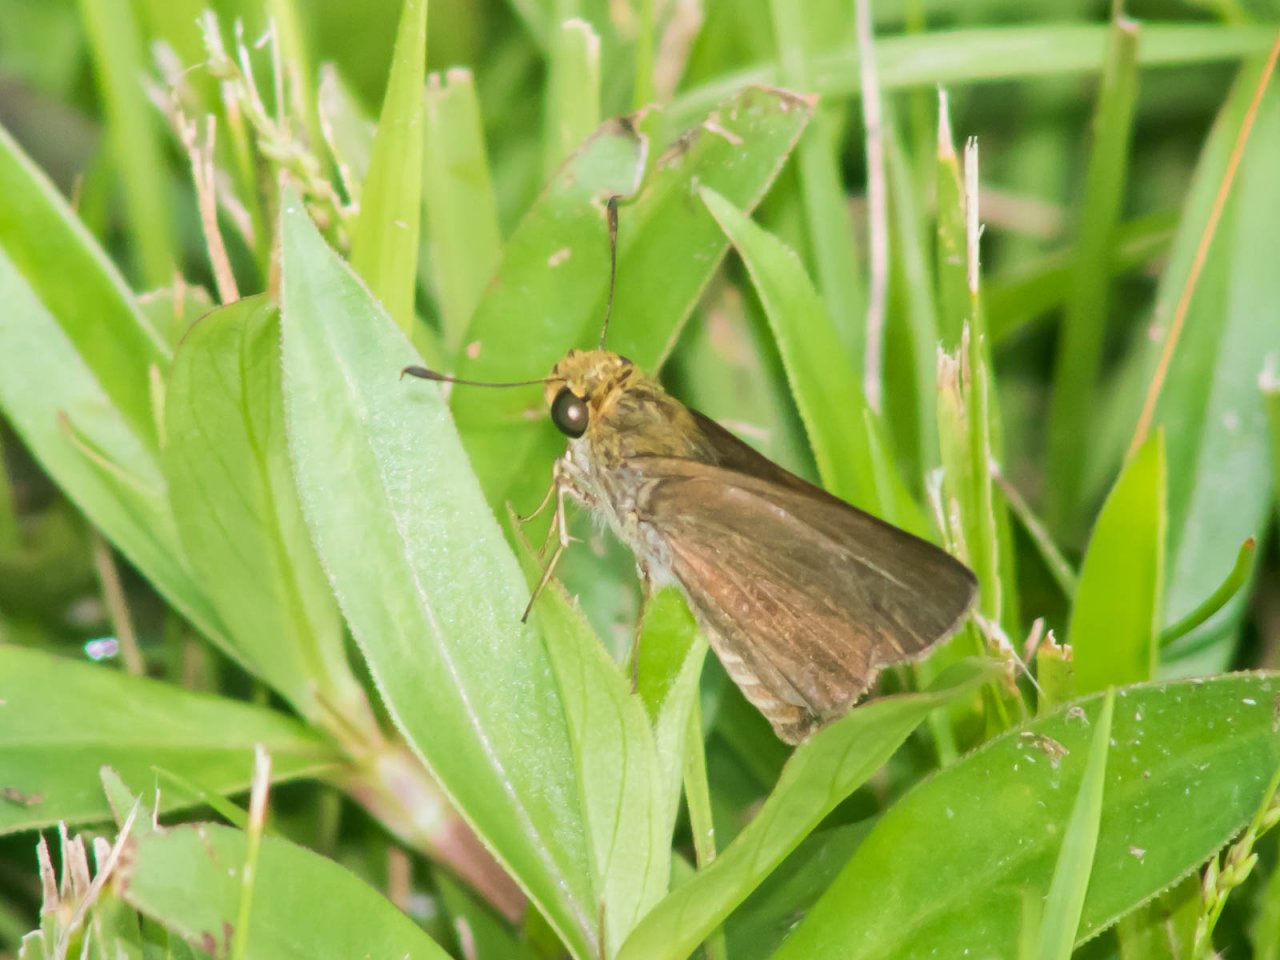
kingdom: Animalia
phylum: Arthropoda
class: Insecta
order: Lepidoptera
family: Hesperiidae
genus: Euphyes
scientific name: Euphyes vestris
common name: Dun Skipper
